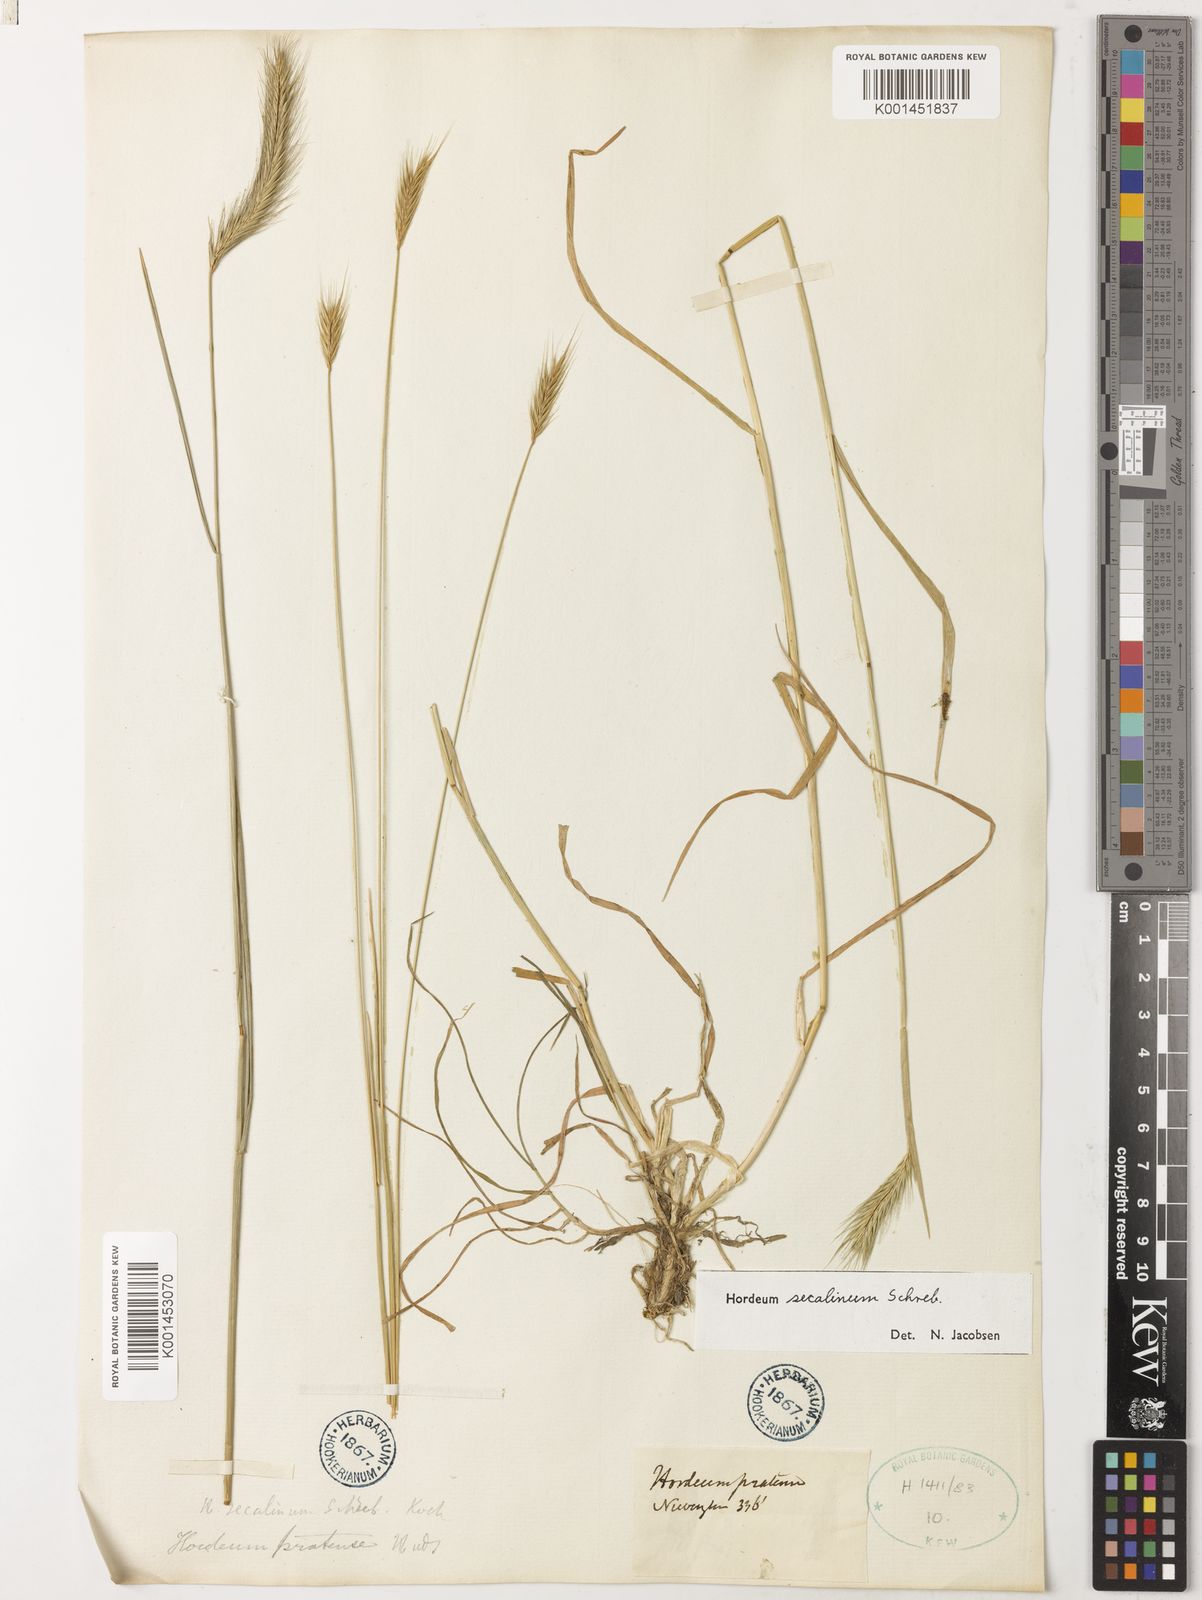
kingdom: Plantae
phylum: Tracheophyta
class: Liliopsida
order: Poales
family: Poaceae
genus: Hordeum
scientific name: Hordeum secalinum
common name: Meadow barley
